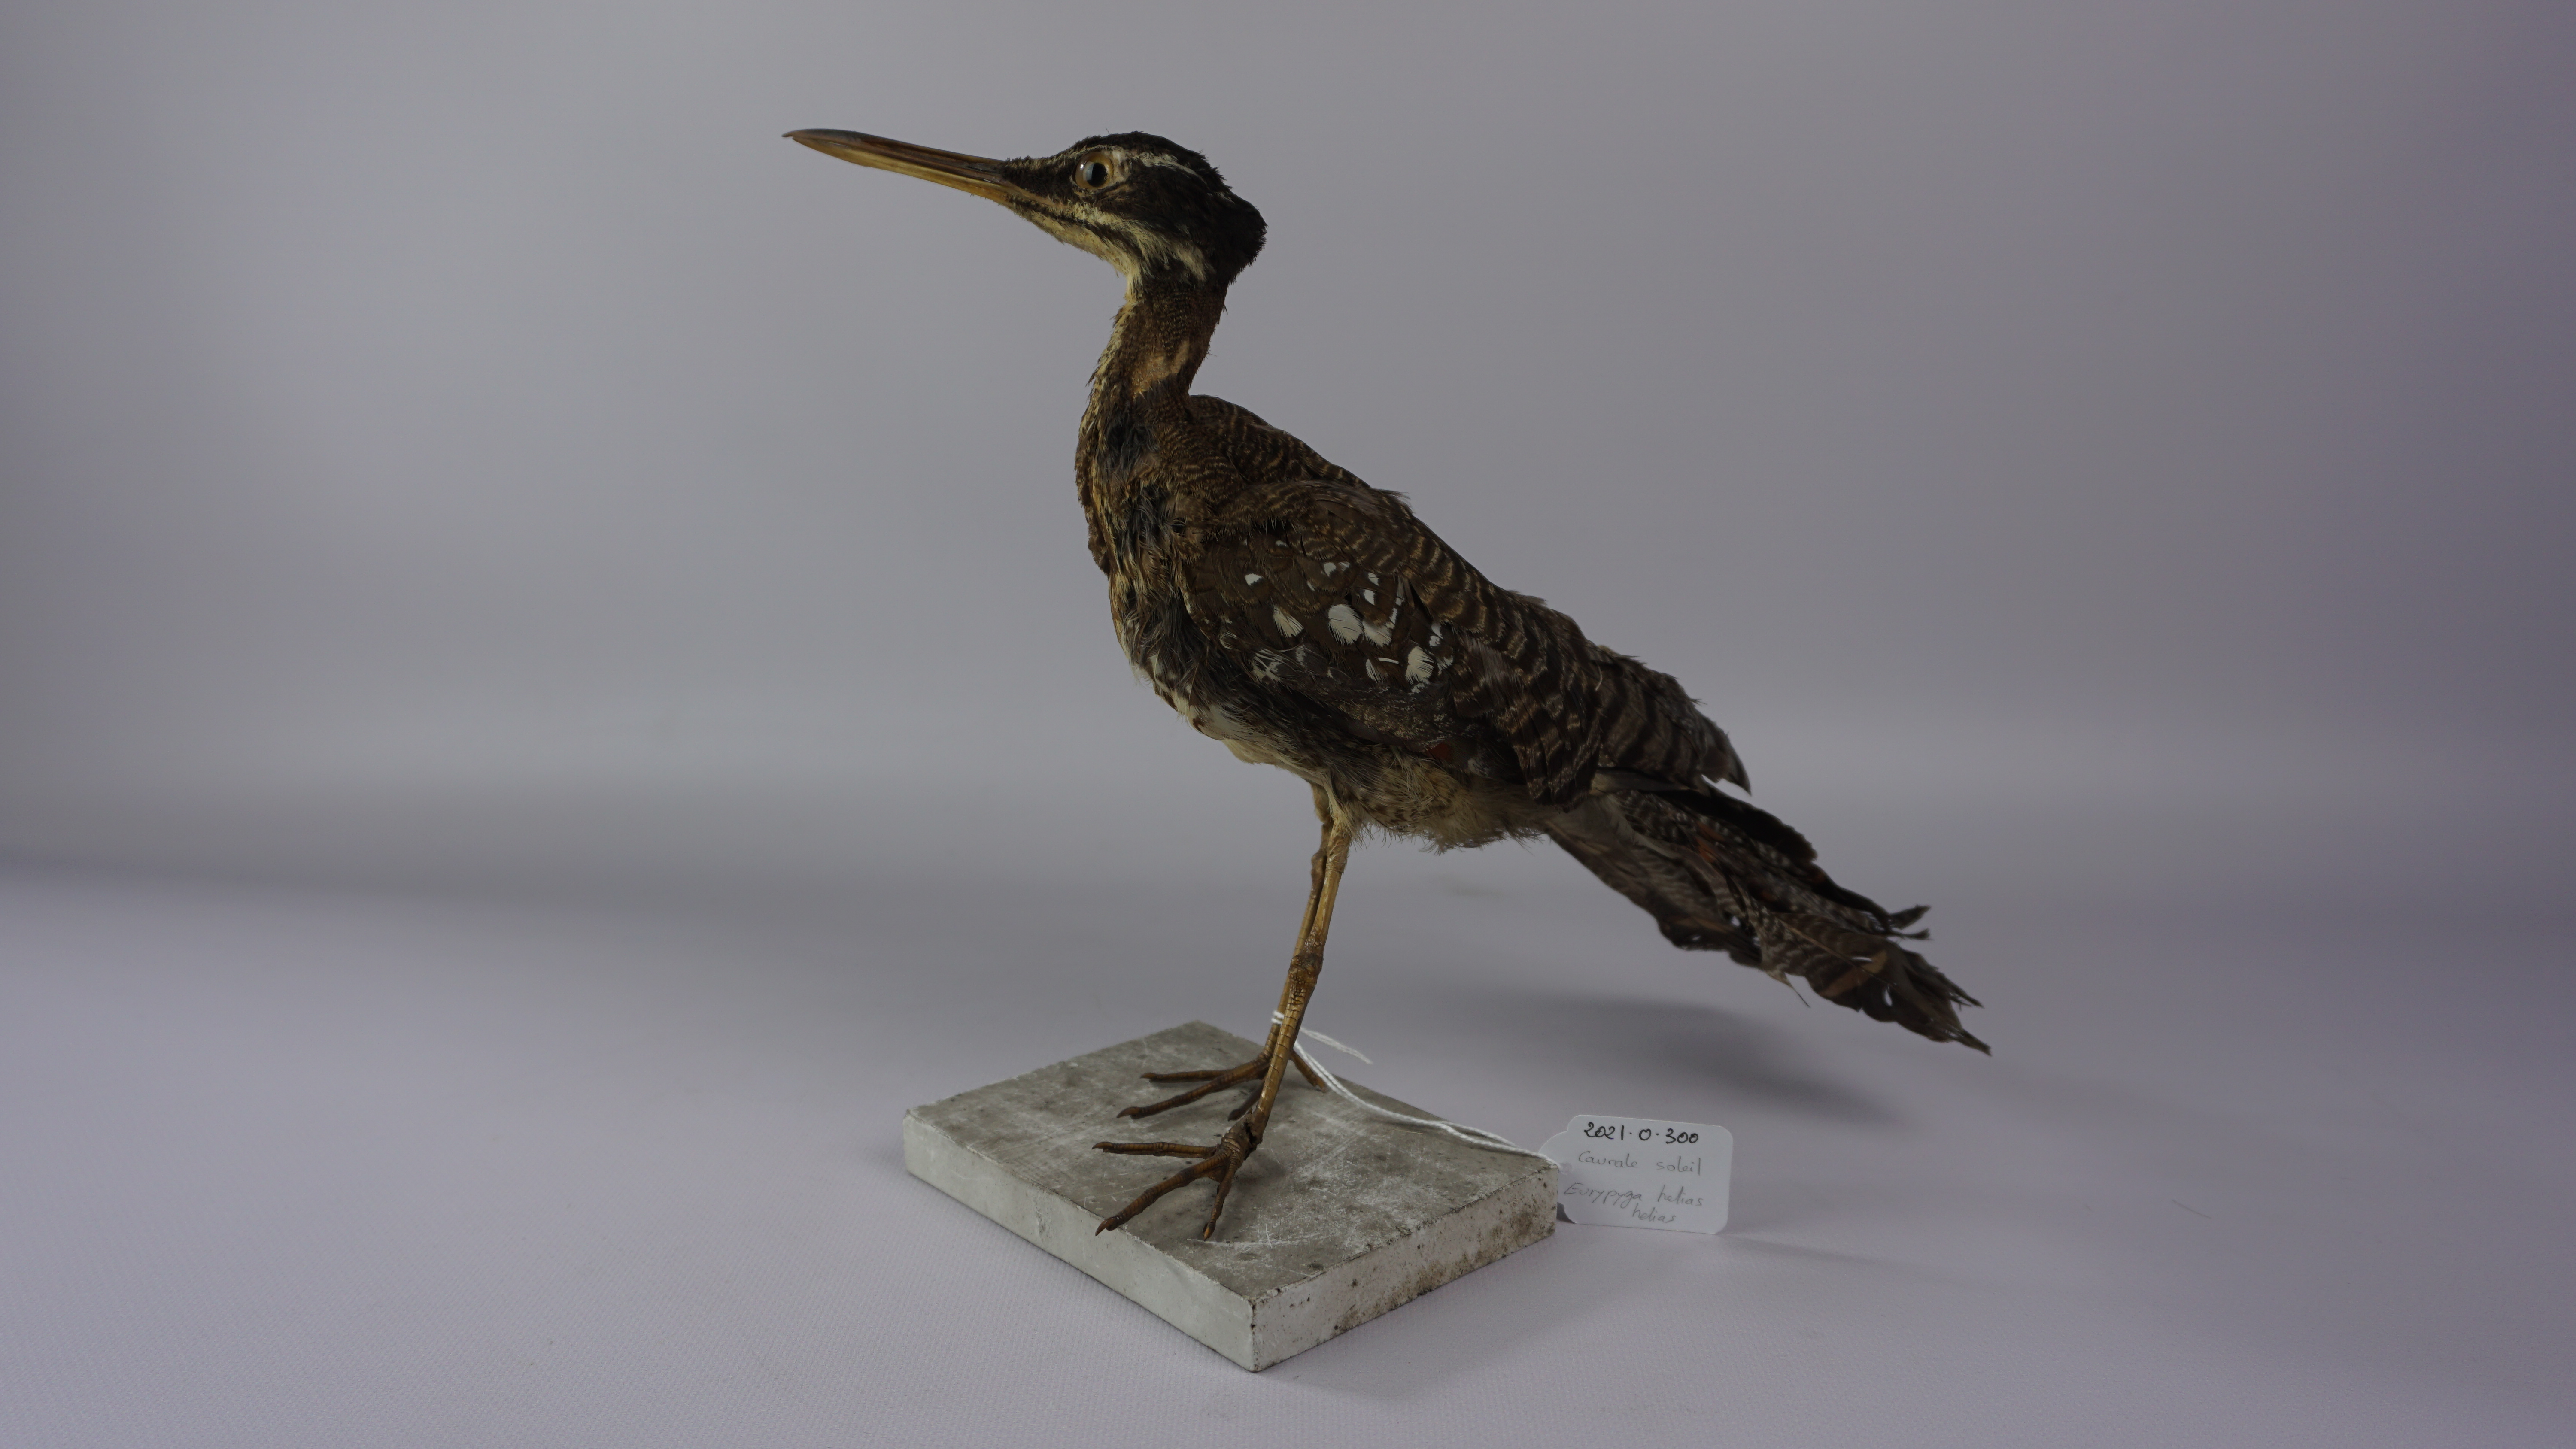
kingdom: Animalia
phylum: Chordata
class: Aves
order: Eurypygiformes
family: Eurypygidae
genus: Eurypyga
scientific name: Eurypyga helias
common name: Sunbittern
